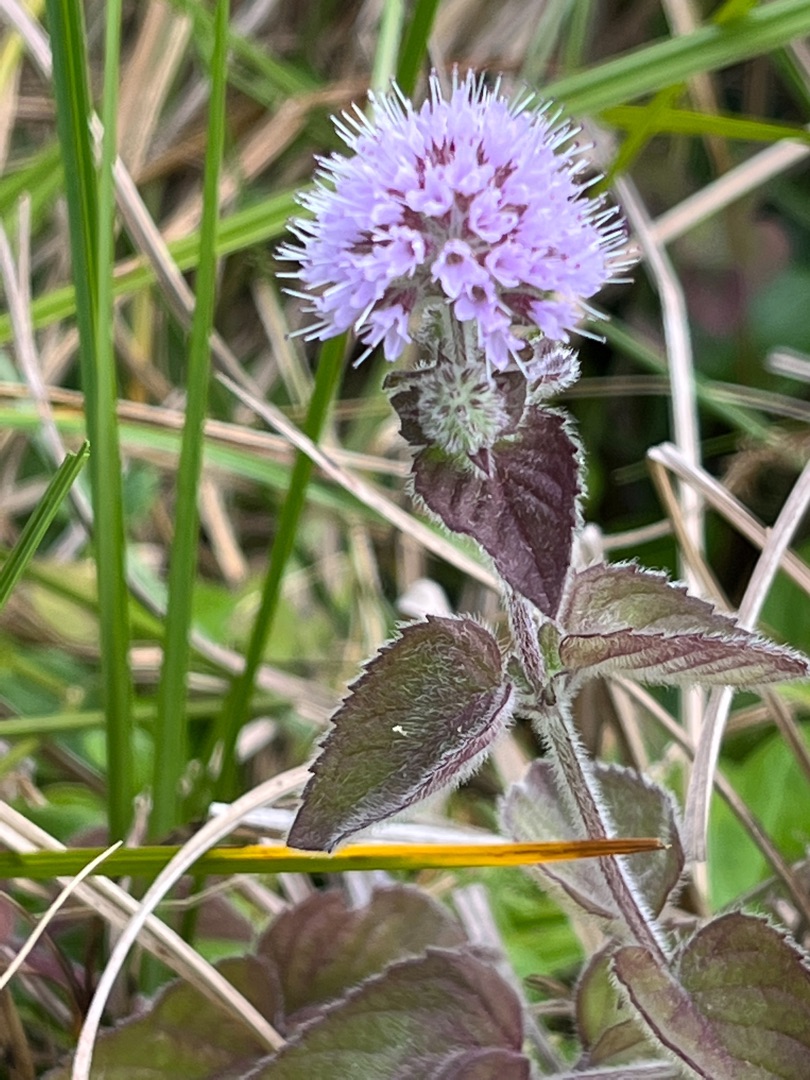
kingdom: Plantae
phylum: Tracheophyta
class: Magnoliopsida
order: Lamiales
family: Lamiaceae
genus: Mentha
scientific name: Mentha aquatica
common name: Vand-mynte
